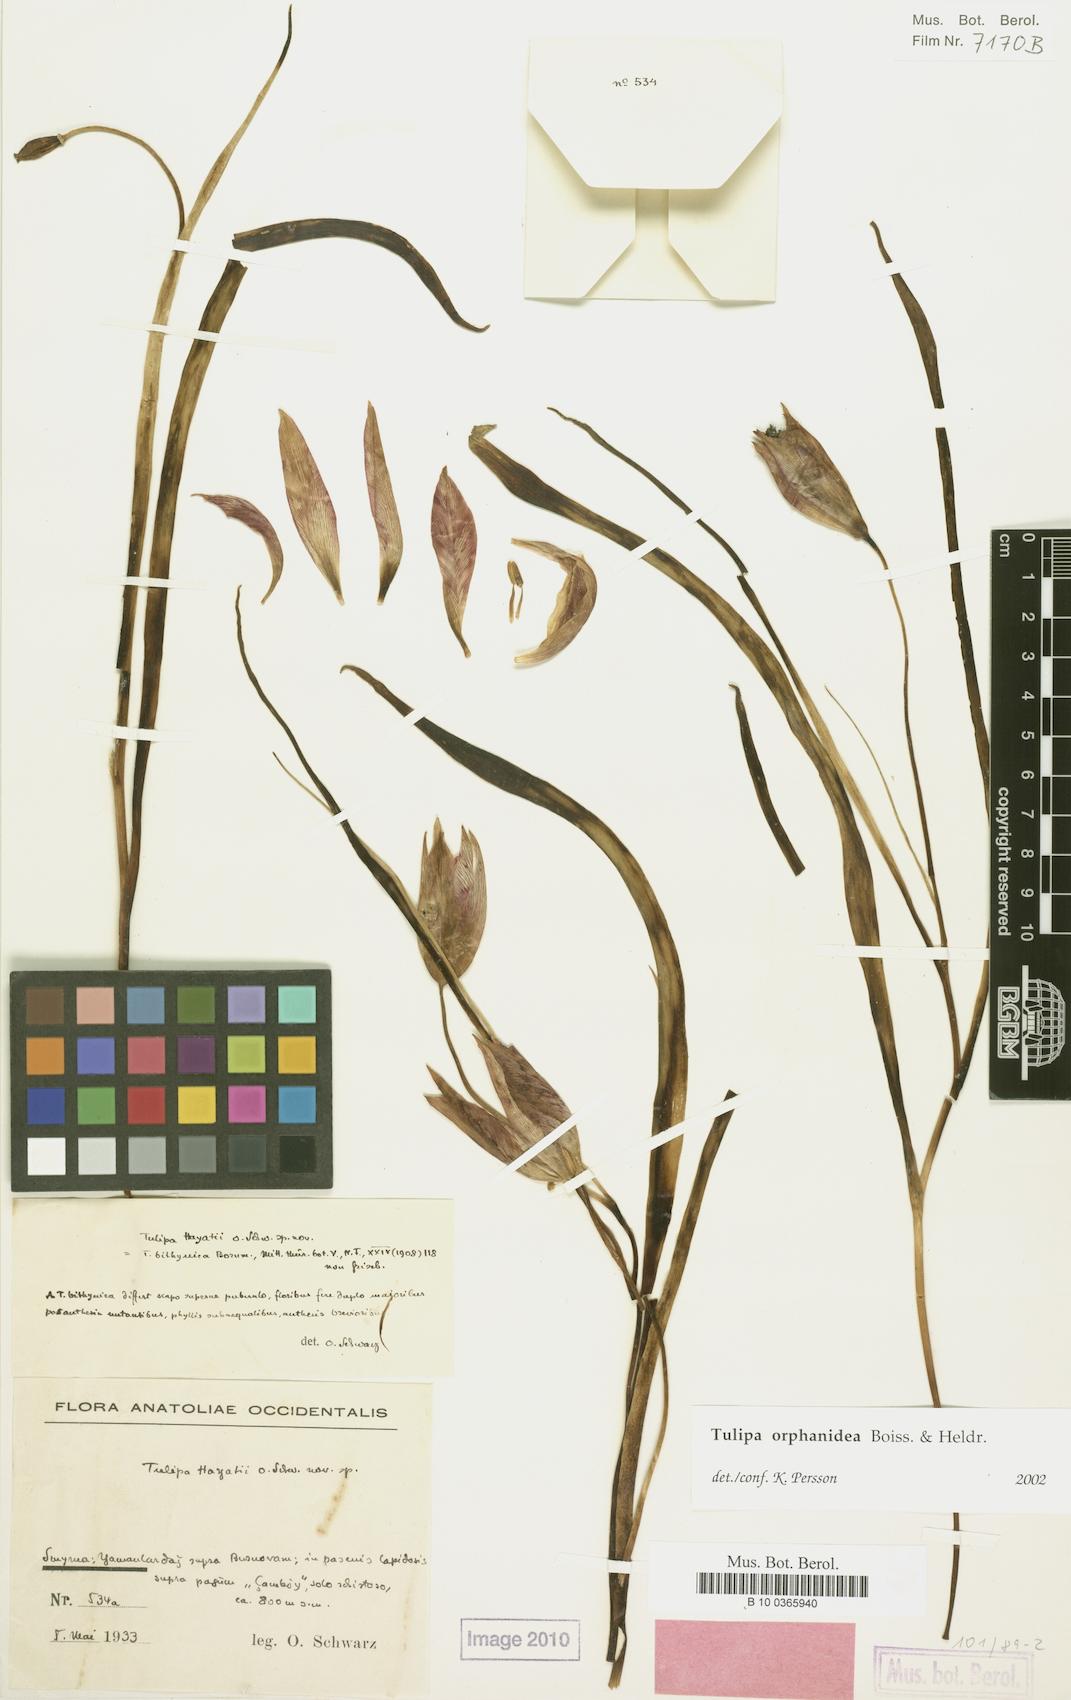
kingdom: Plantae
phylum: Tracheophyta
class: Liliopsida
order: Liliales
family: Liliaceae
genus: Tulipa
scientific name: Tulipa orphanidea
